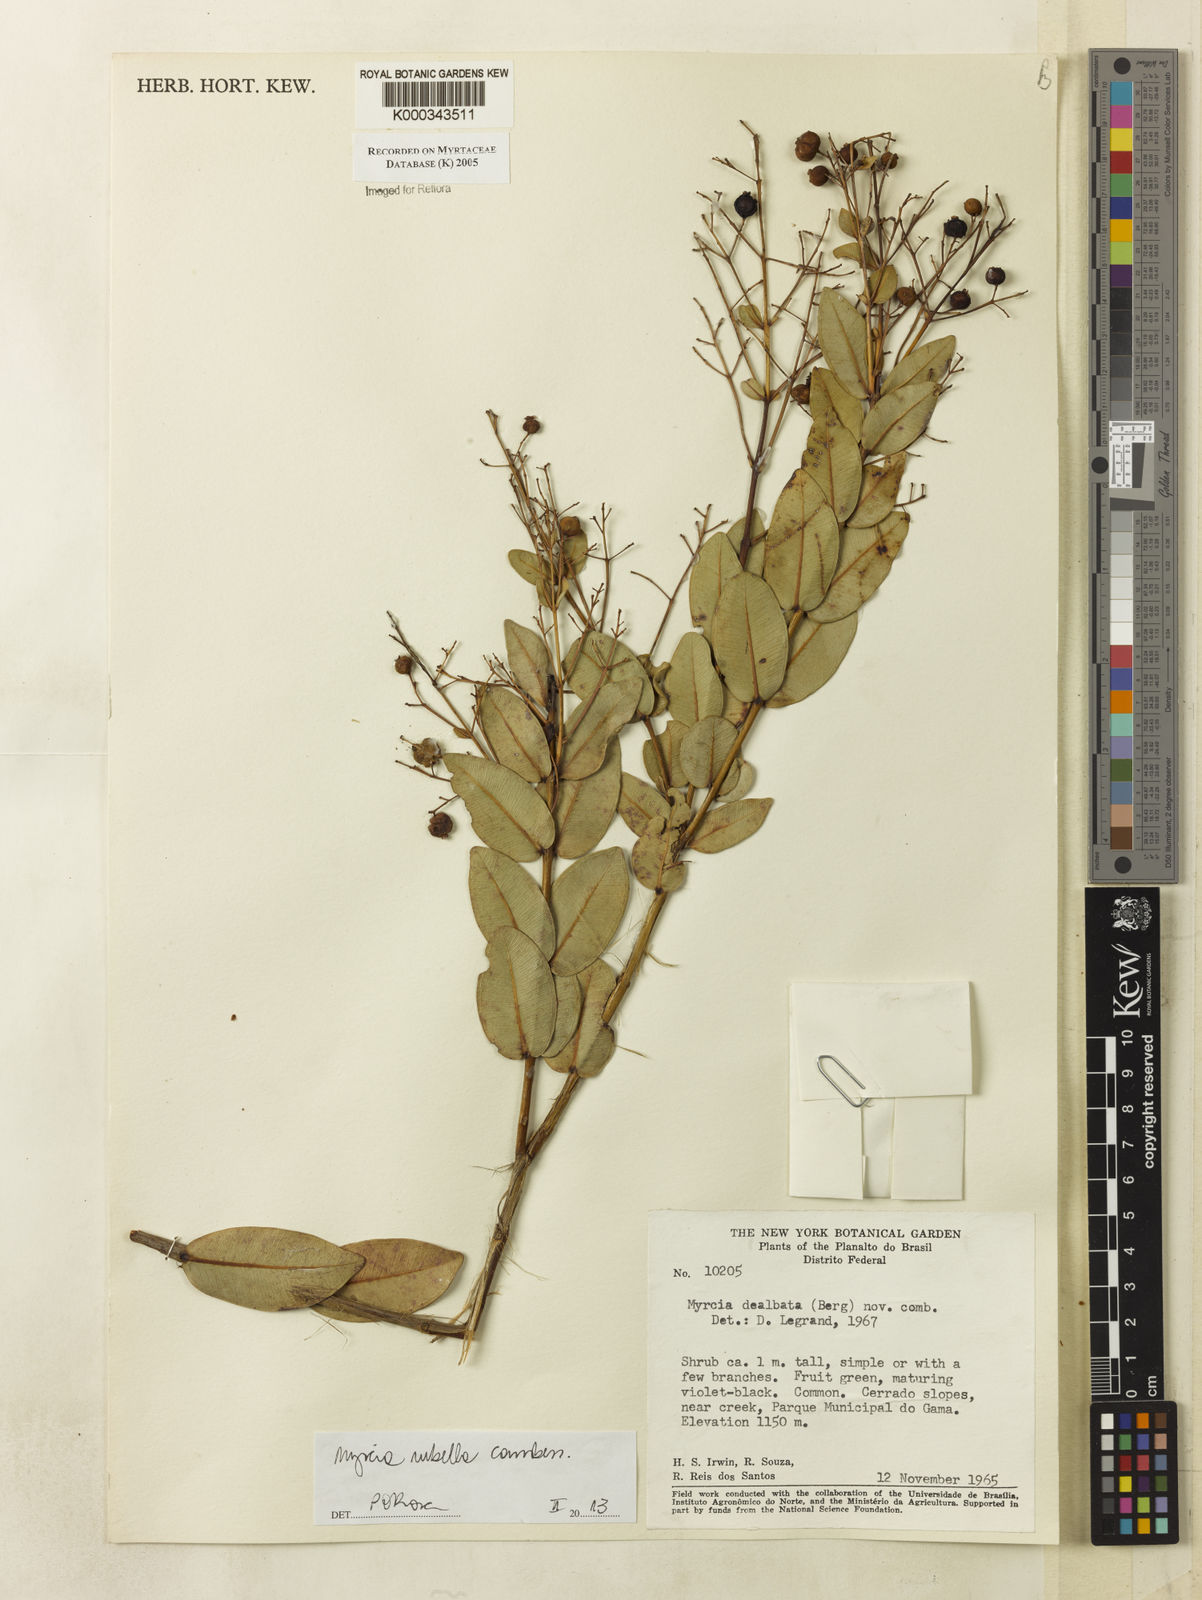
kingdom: Plantae
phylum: Tracheophyta
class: Magnoliopsida
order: Myrtales
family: Myrtaceae
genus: Myrcia
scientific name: Myrcia laruotteana
